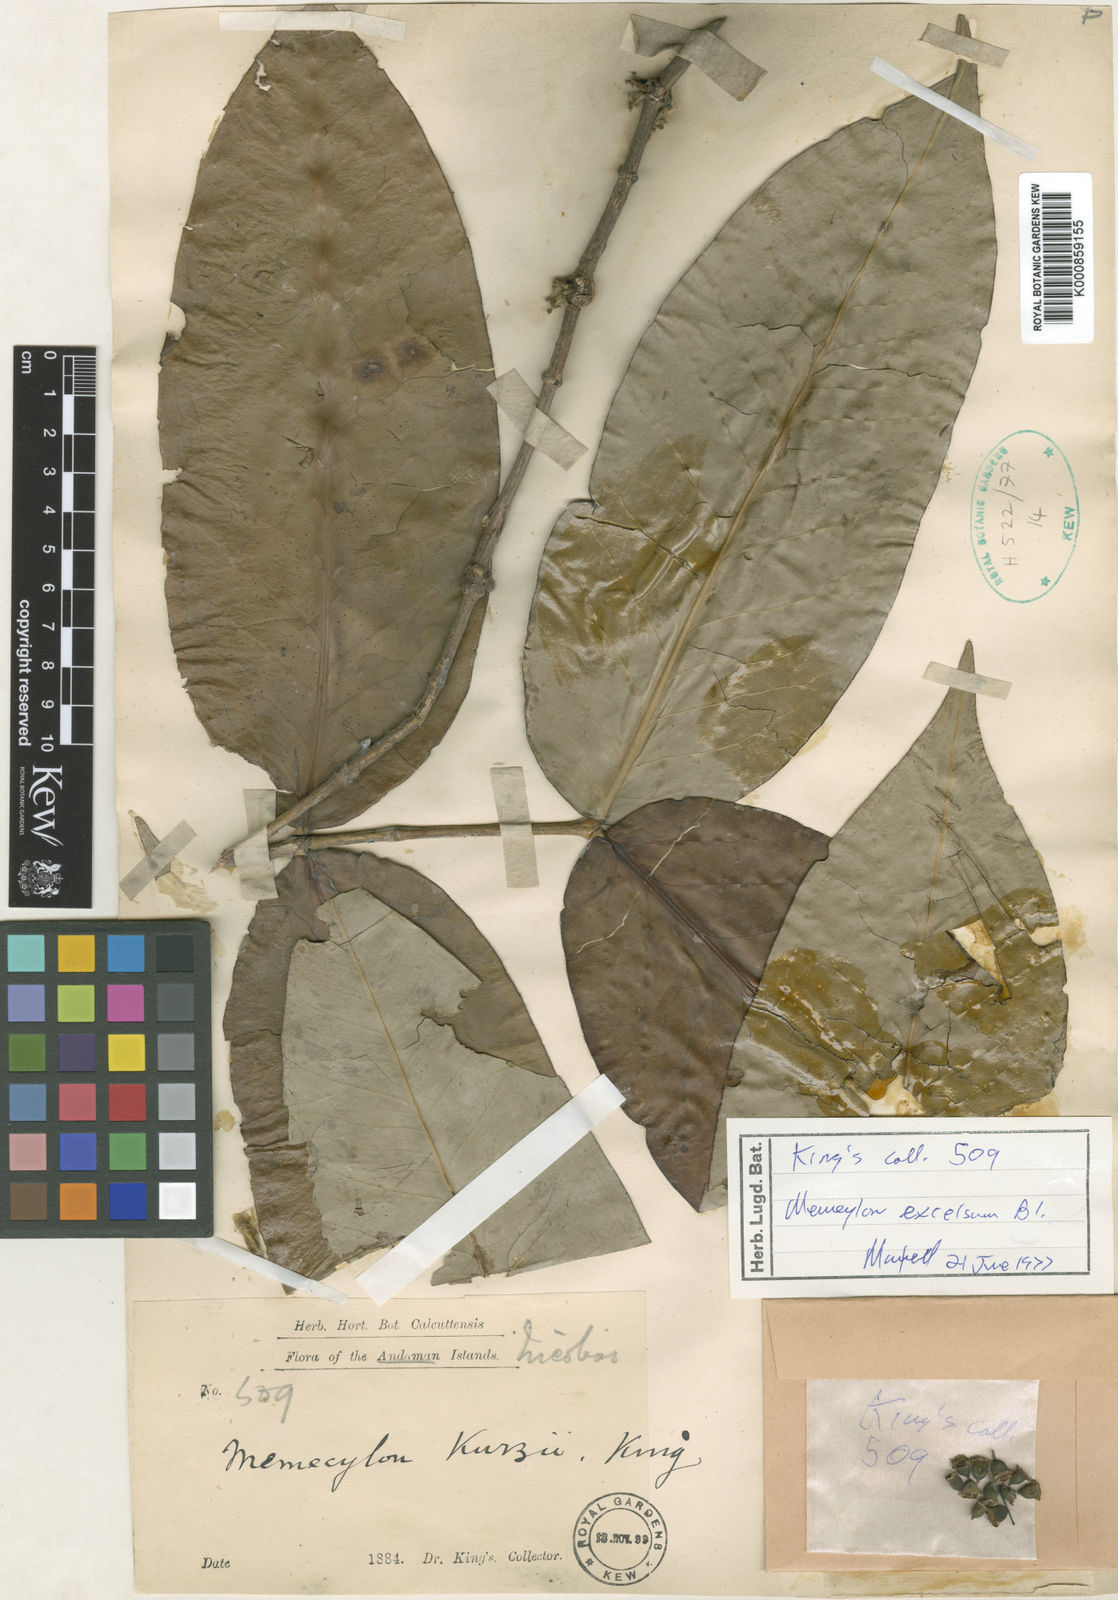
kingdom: Plantae
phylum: Tracheophyta
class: Magnoliopsida
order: Myrtales
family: Melastomataceae
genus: Memecylon
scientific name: Memecylon excelsum
